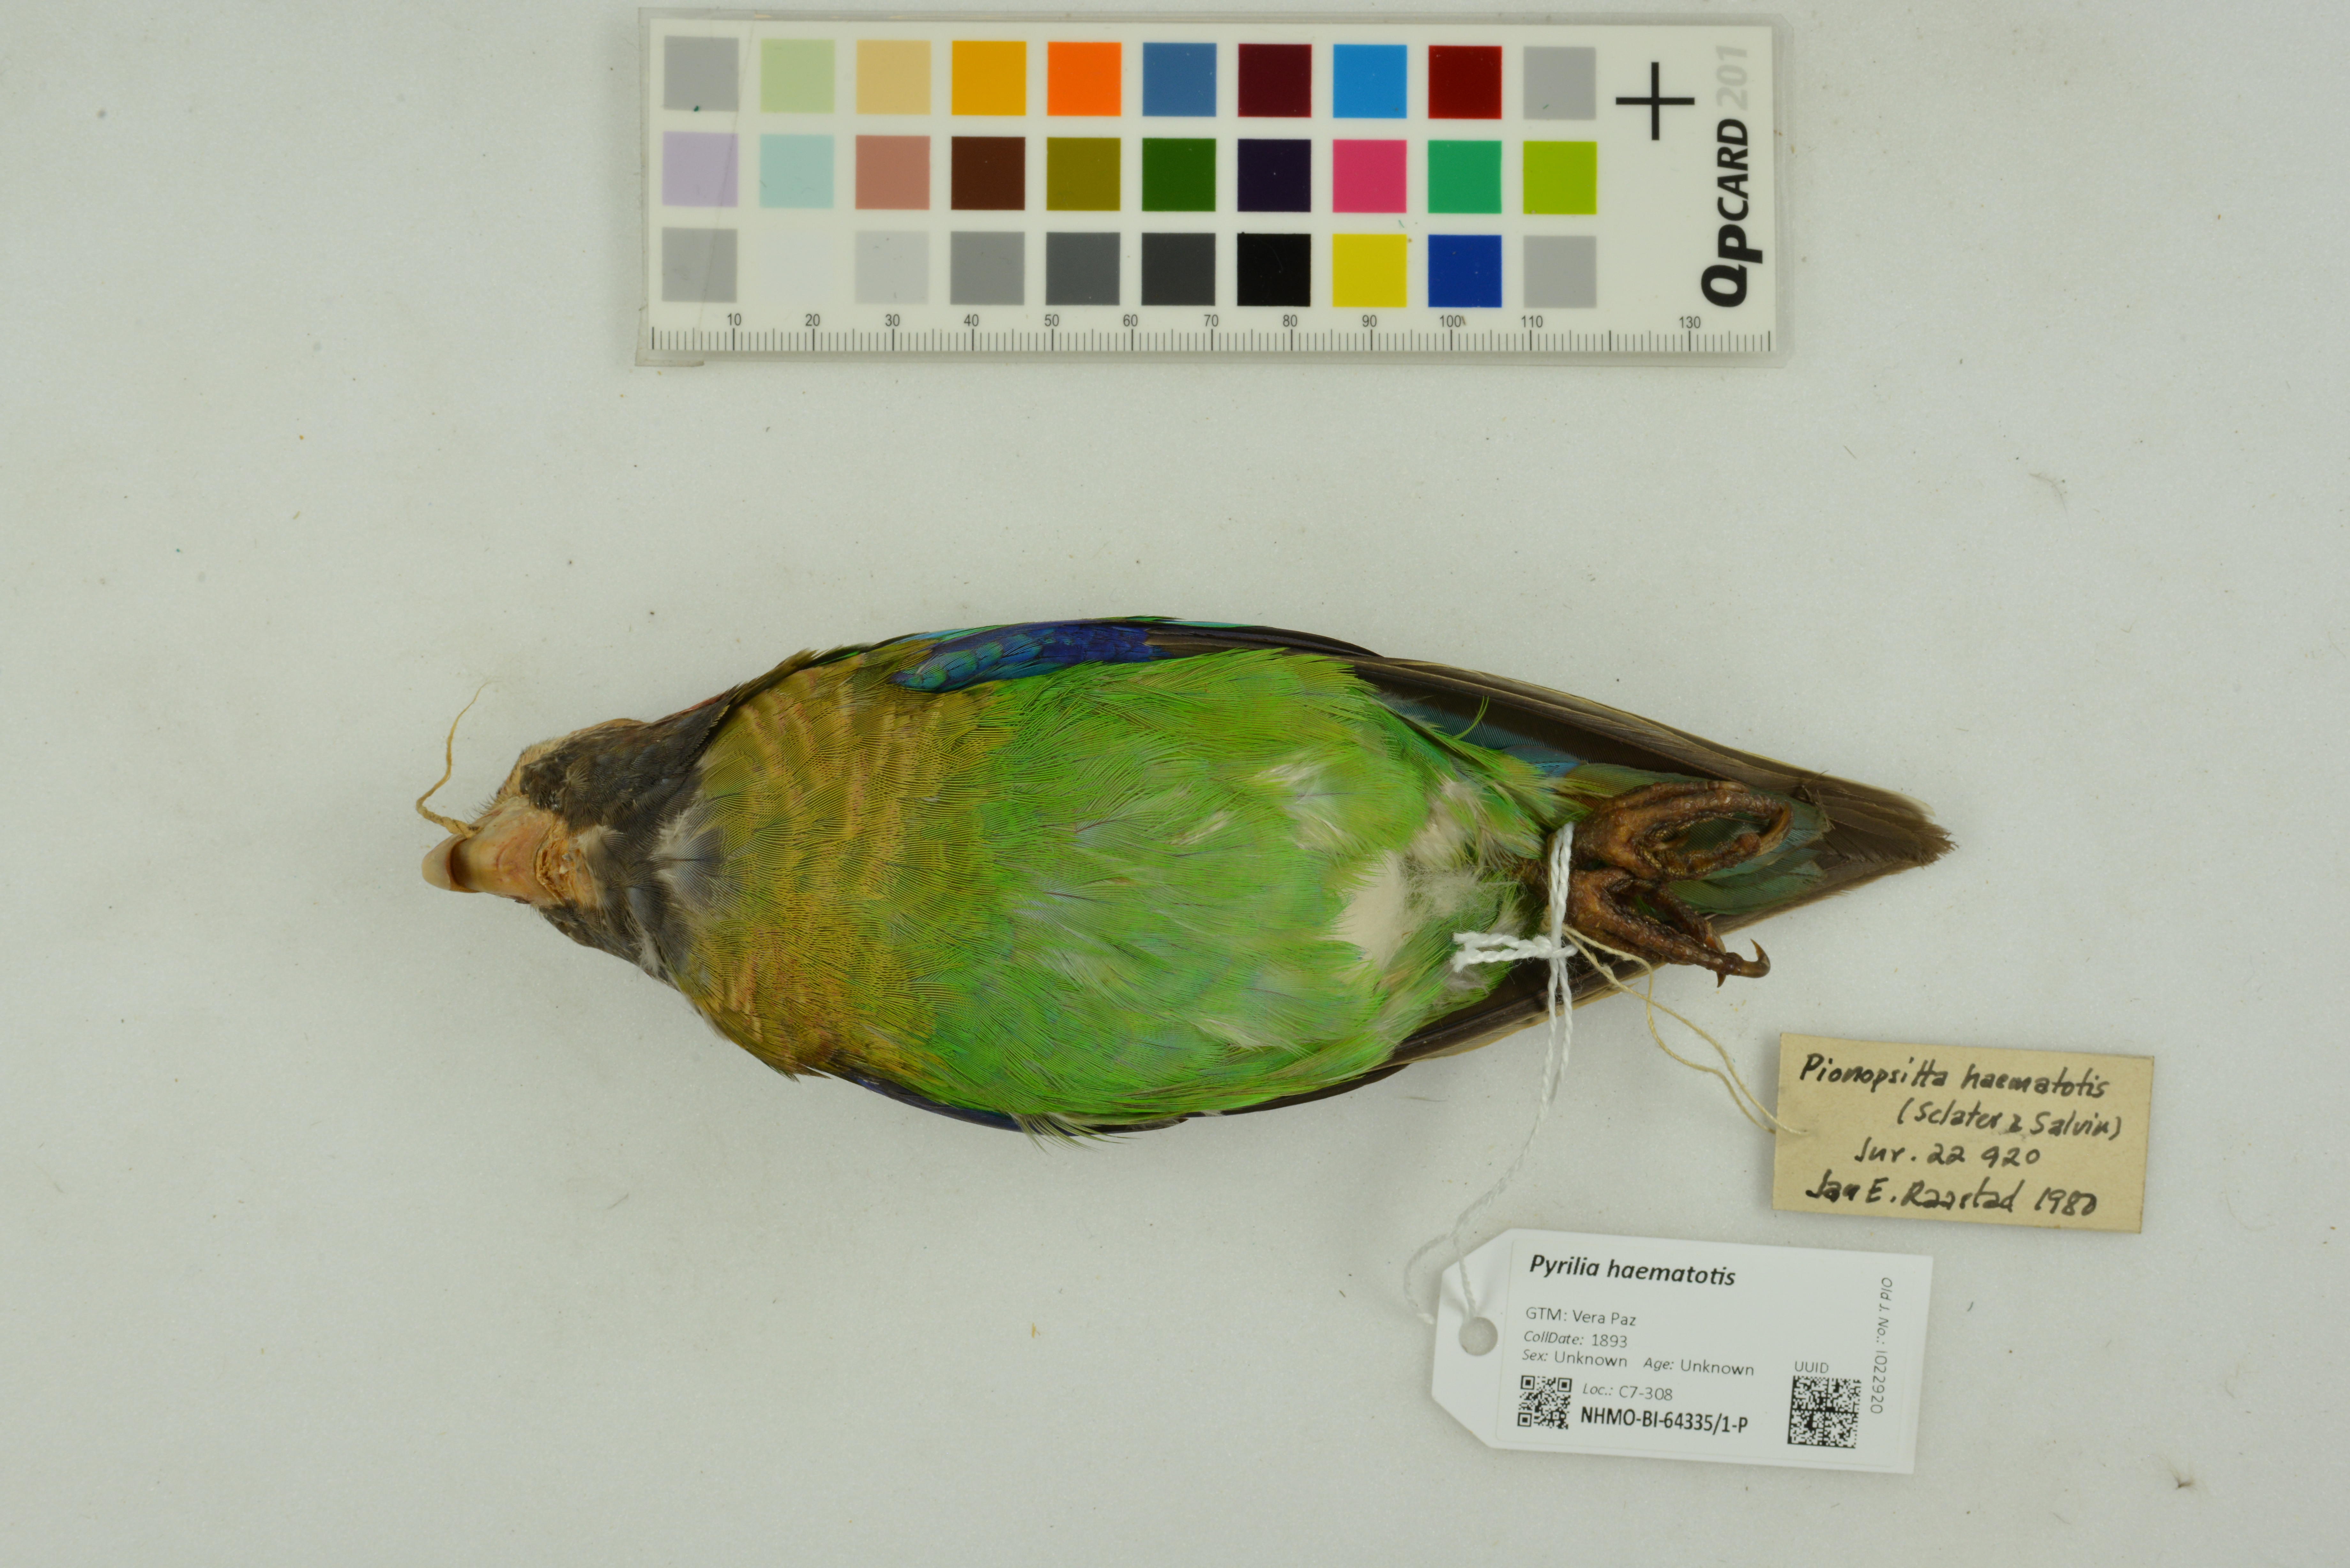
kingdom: Animalia
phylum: Chordata
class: Aves
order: Psittaciformes
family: Psittacidae
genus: Pionopsitta
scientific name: Pionopsitta haematotis
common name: Brown-hooded parrot
